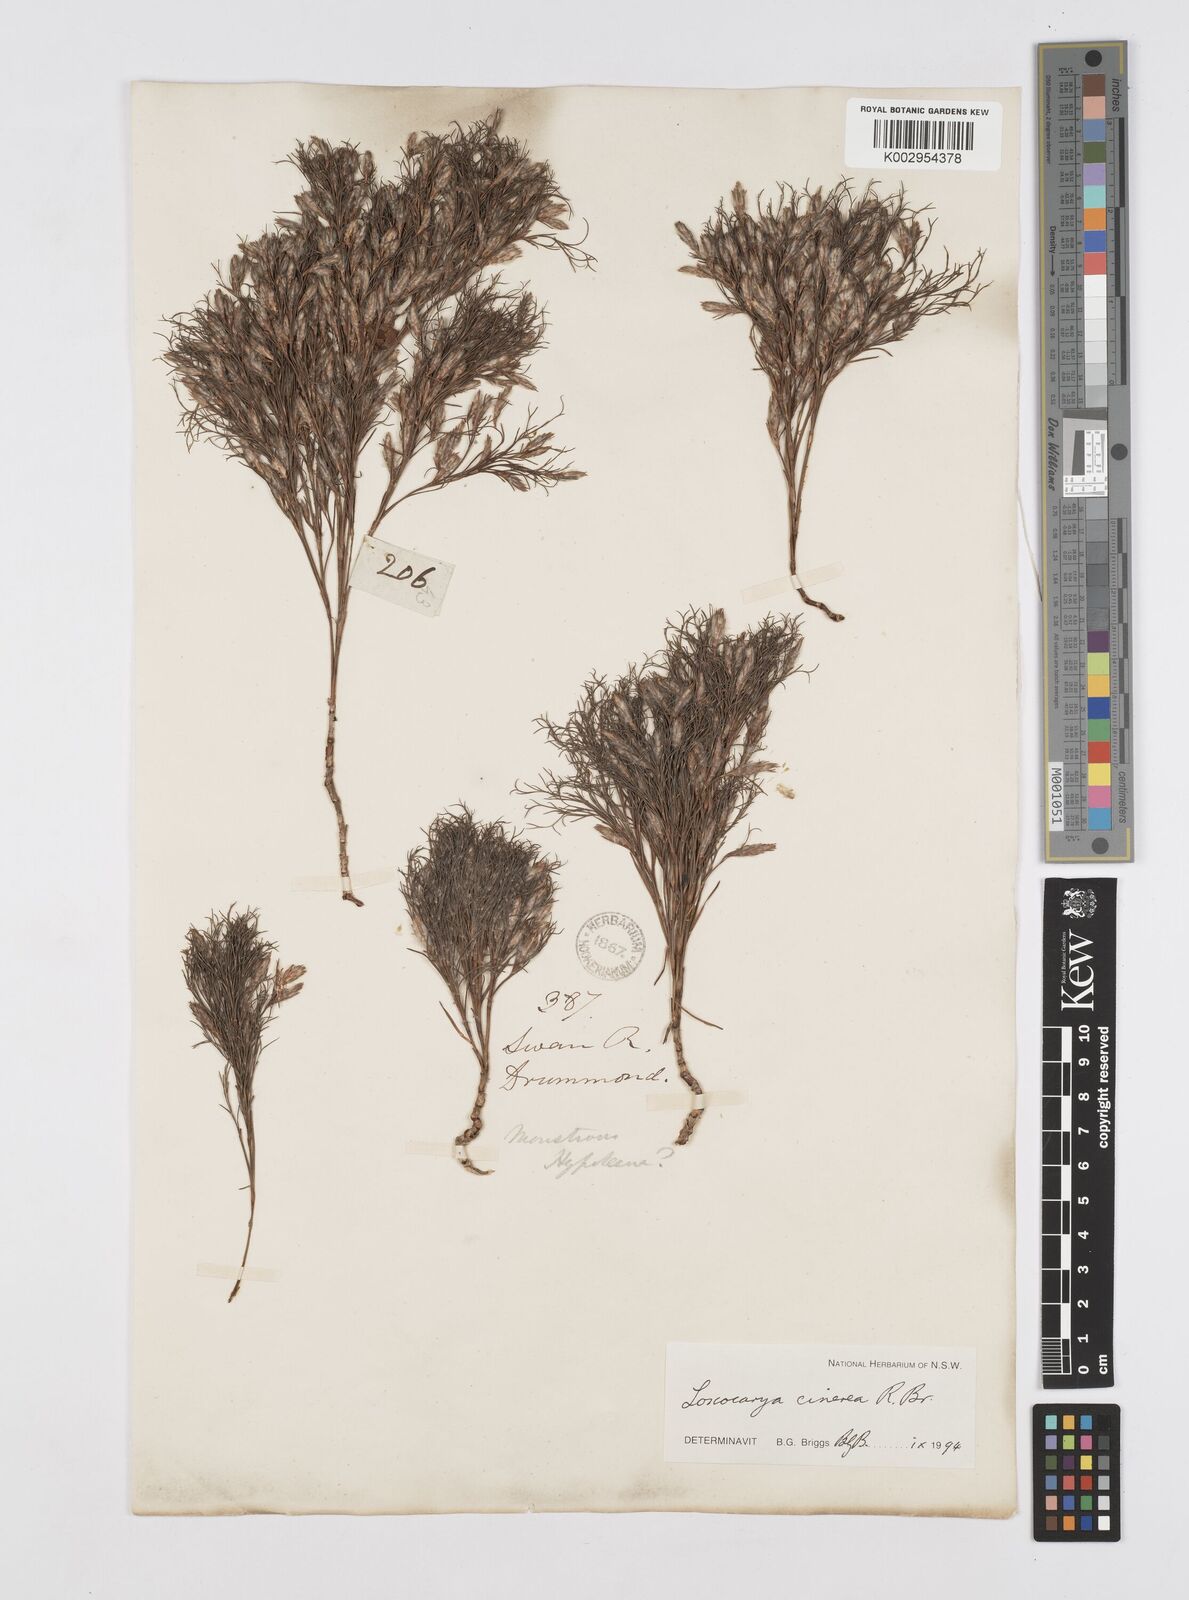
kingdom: Plantae
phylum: Tracheophyta
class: Liliopsida
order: Poales
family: Restionaceae
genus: Loxocarya
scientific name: Loxocarya cinerea
